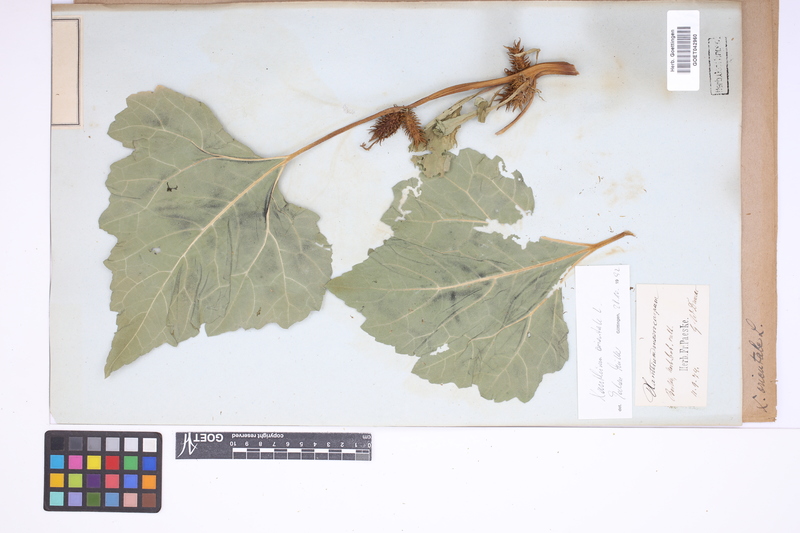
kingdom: Plantae
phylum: Tracheophyta
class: Magnoliopsida
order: Asterales
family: Asteraceae
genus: Xanthium
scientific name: Xanthium orientale
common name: Californian burr
